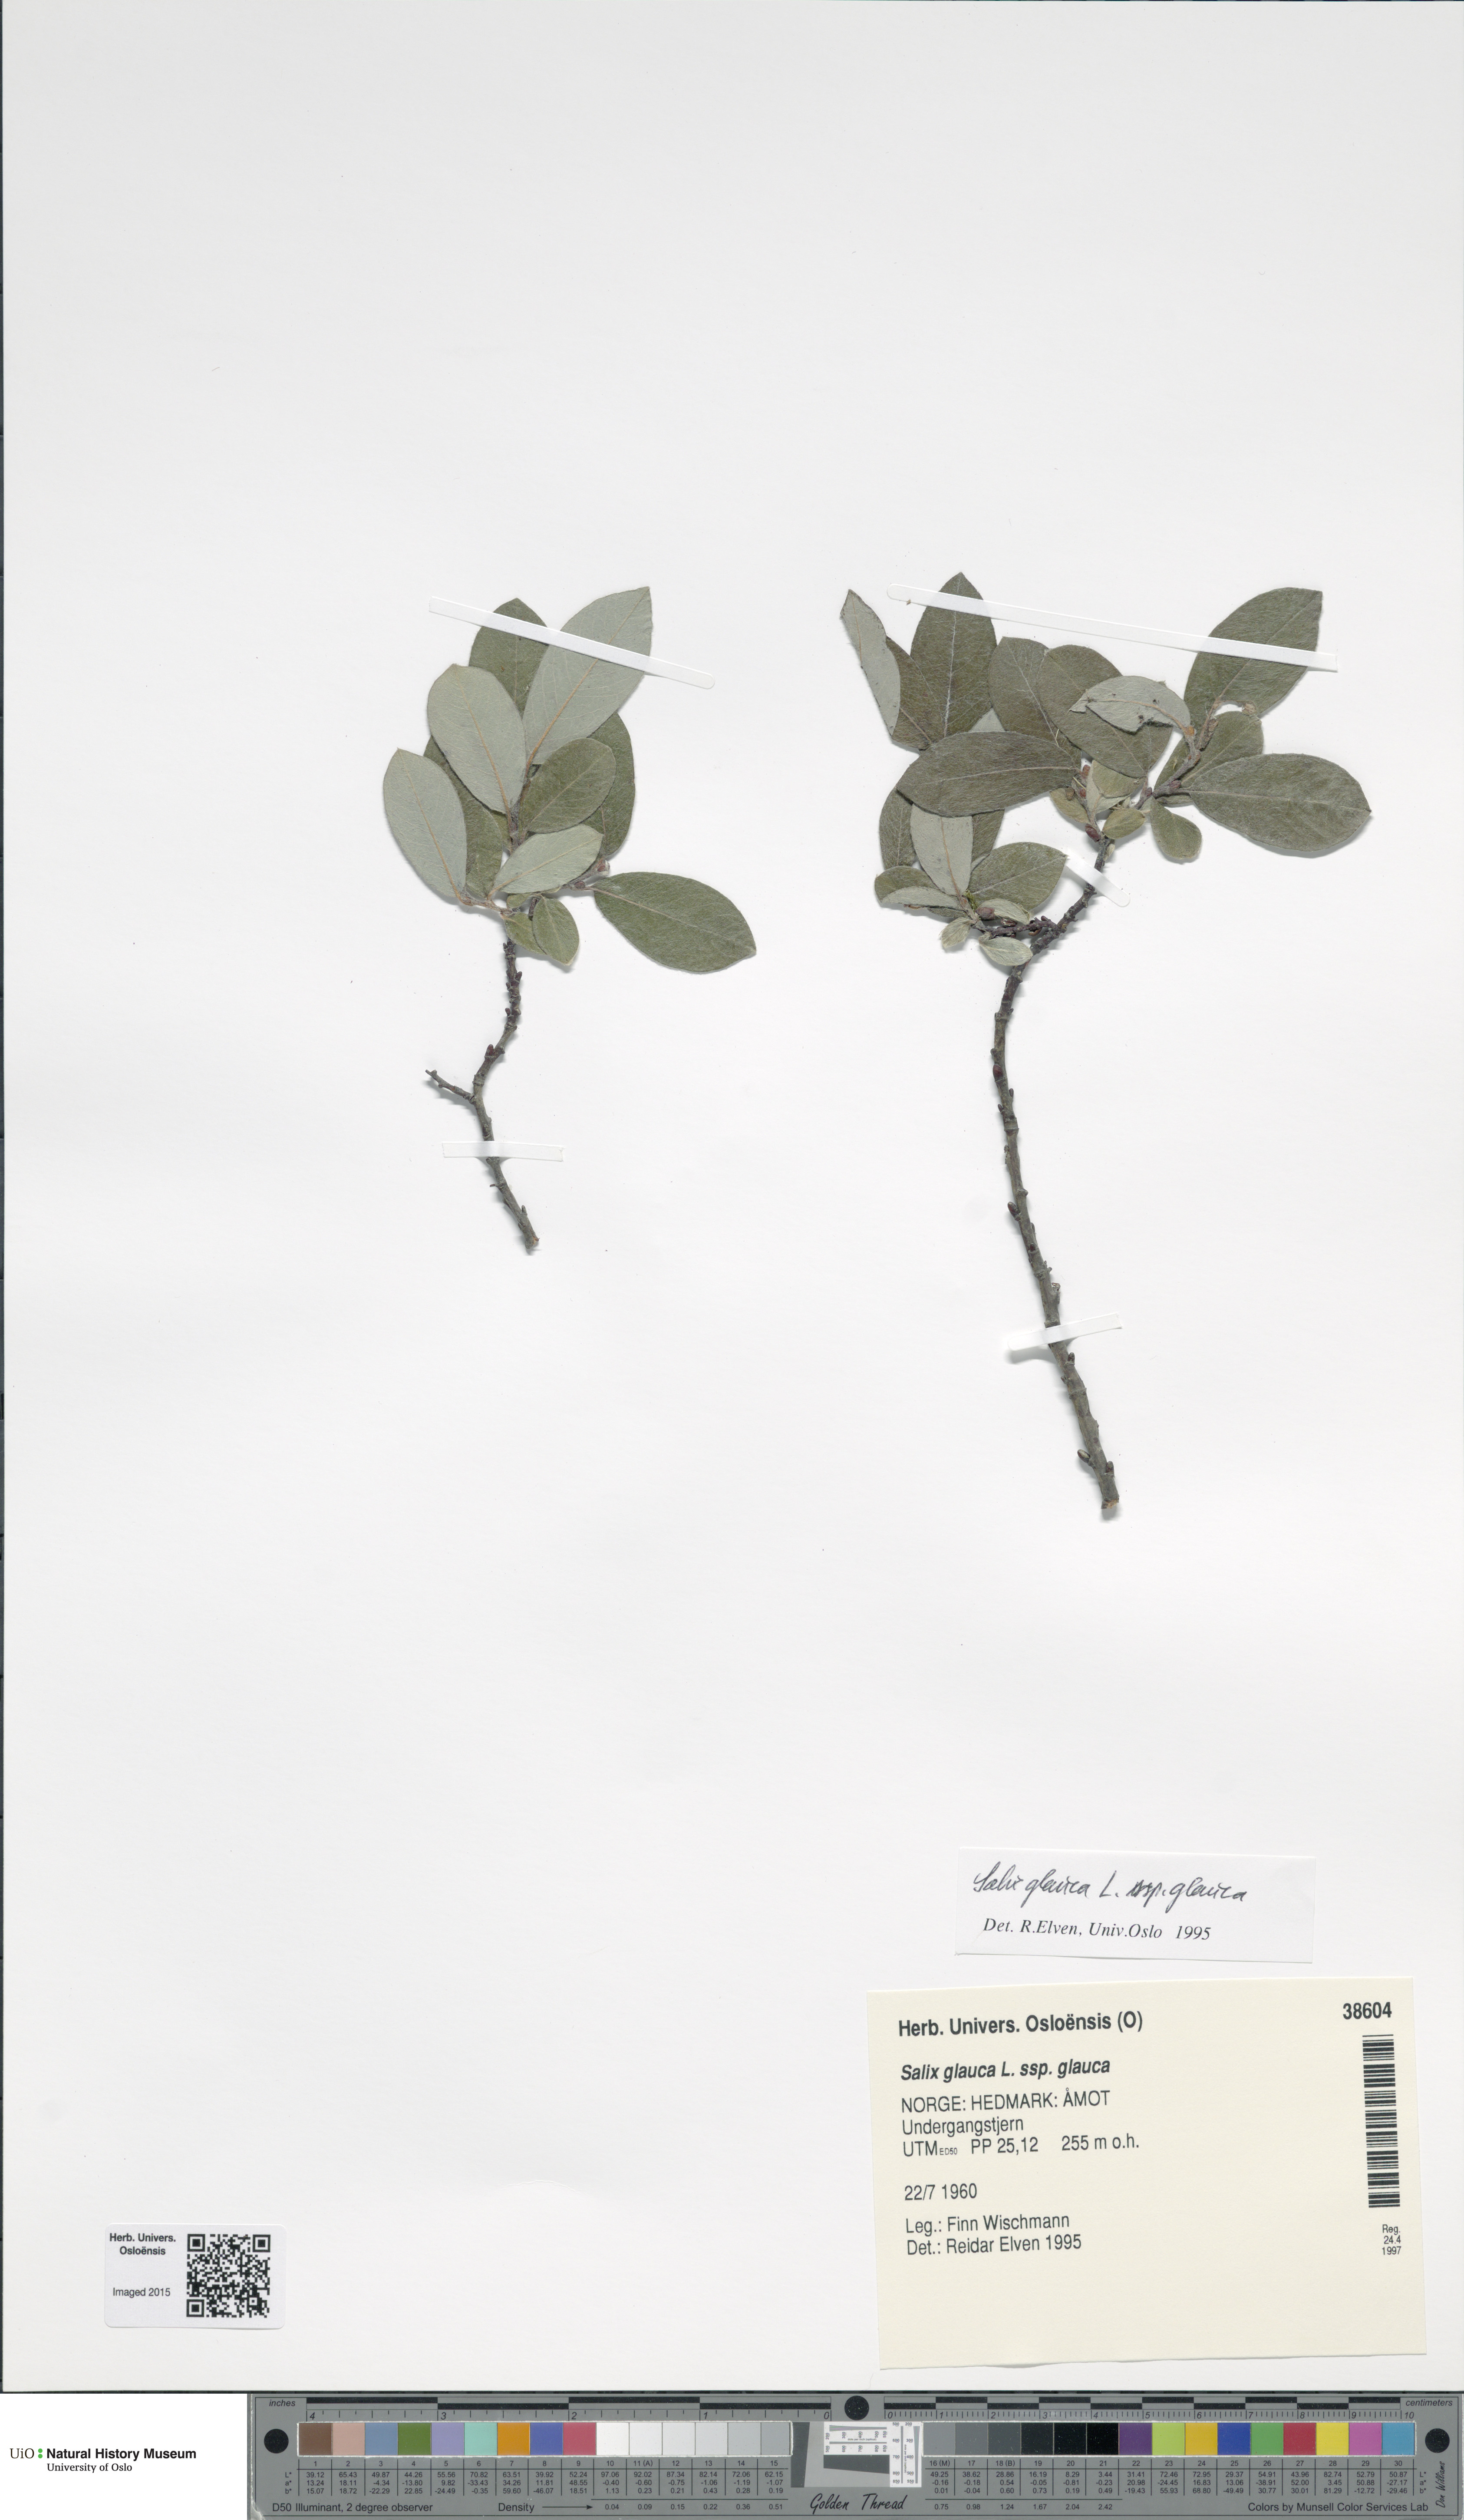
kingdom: Plantae
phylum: Tracheophyta
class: Magnoliopsida
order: Malpighiales
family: Salicaceae
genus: Salix
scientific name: Salix glauca
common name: Glaucous willow
